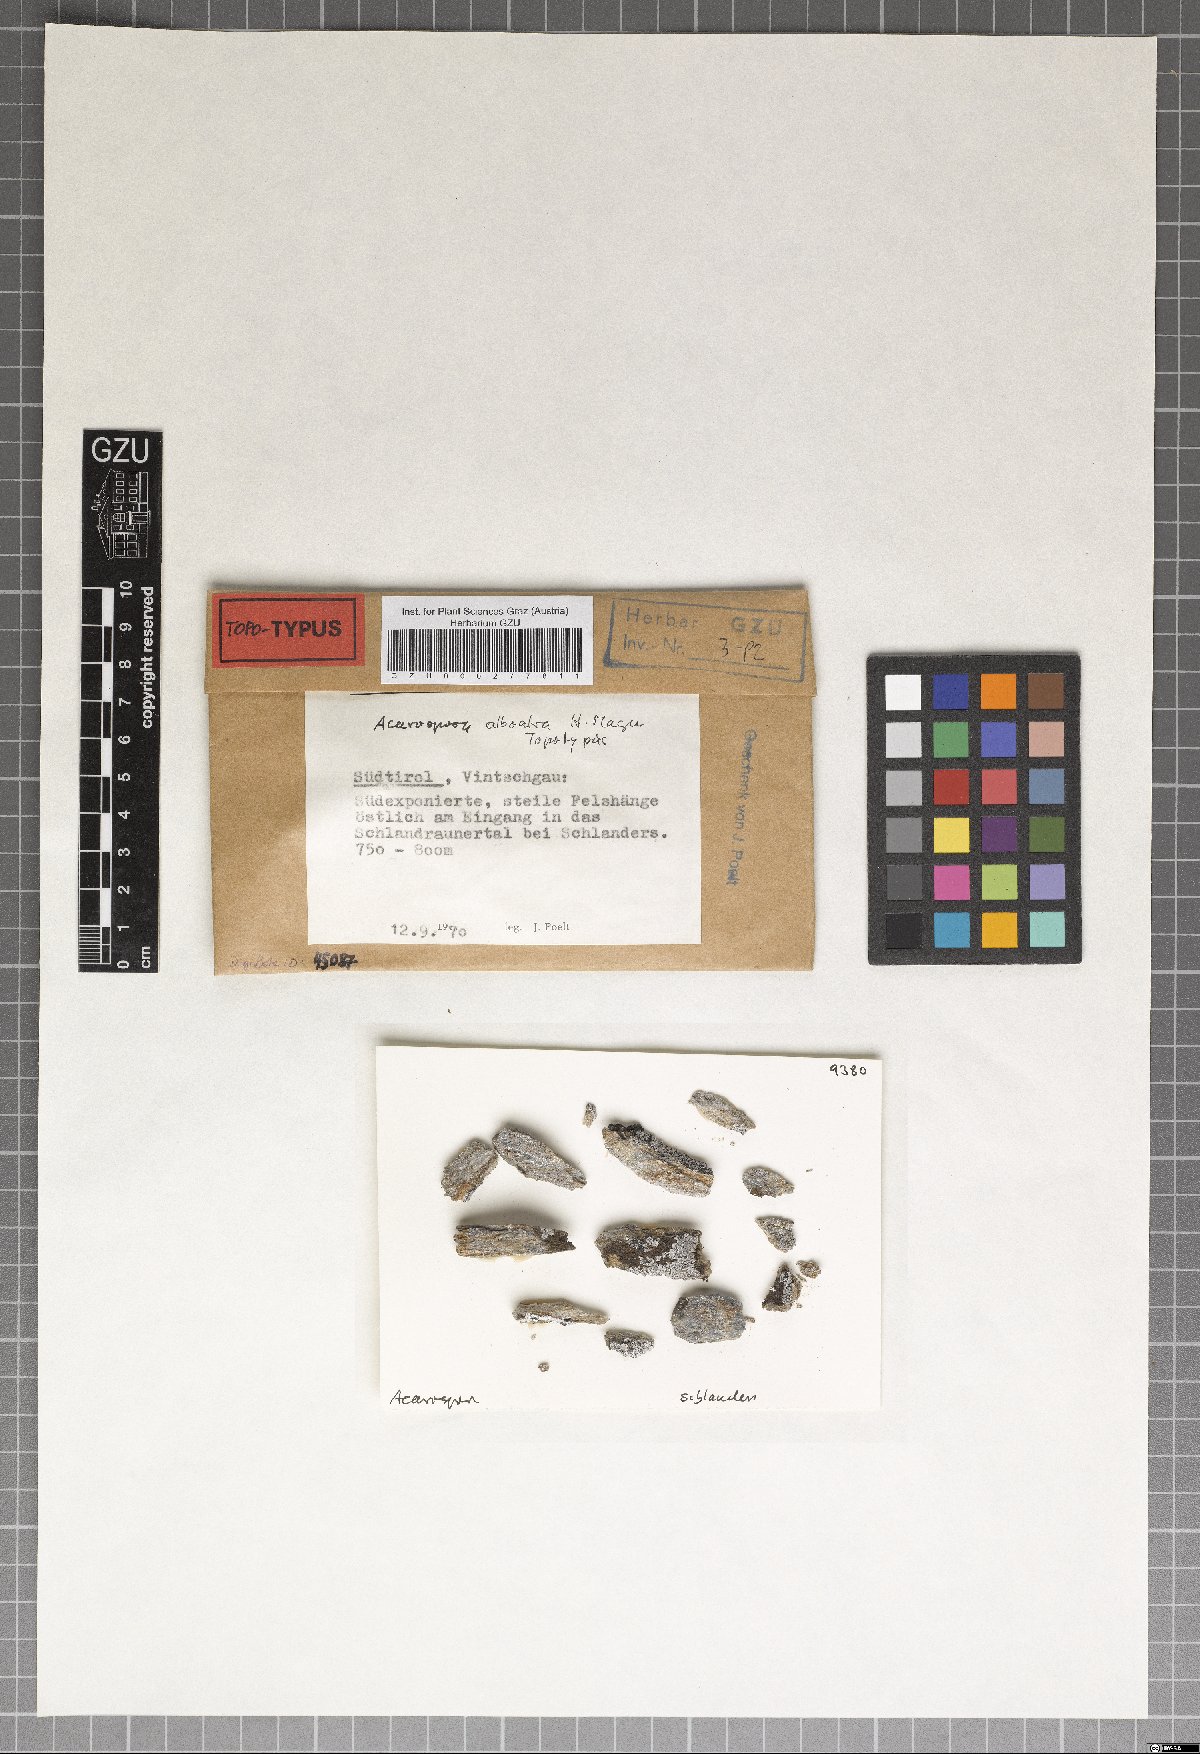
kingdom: Fungi
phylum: Ascomycota
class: Lecanoromycetes
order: Acarosporales
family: Acarosporaceae
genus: Acarospora
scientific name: Acarospora
